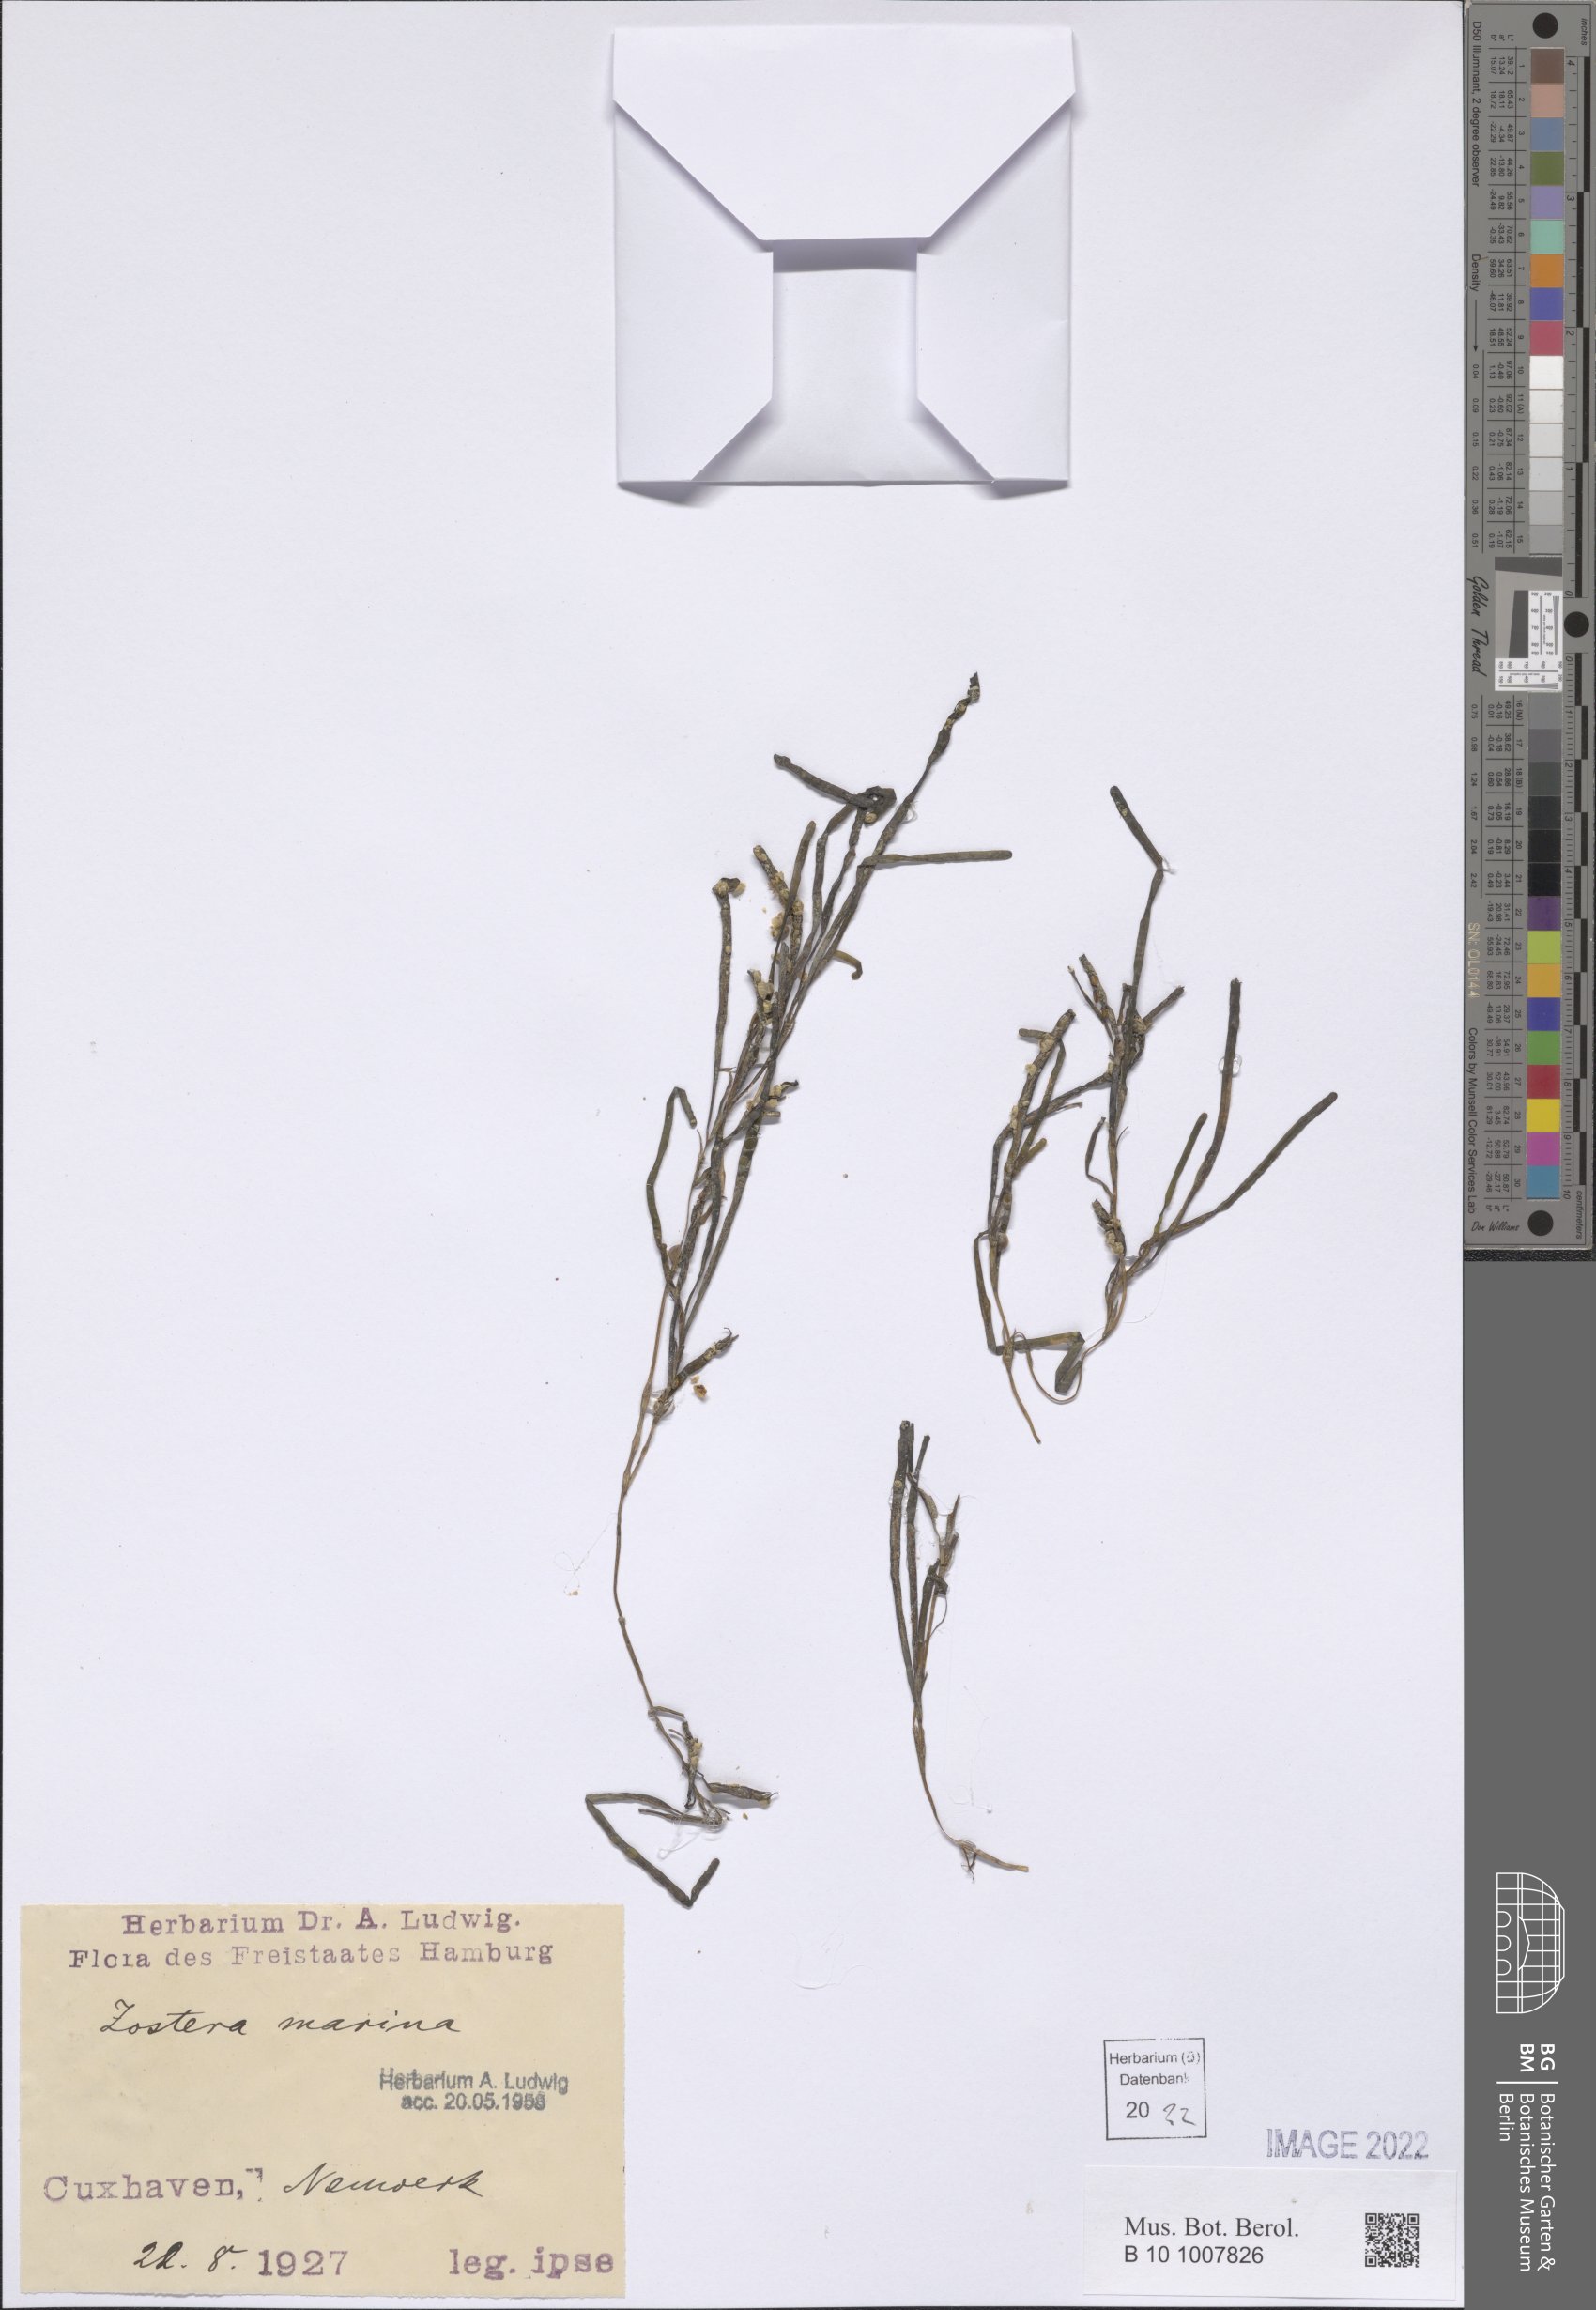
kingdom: Plantae
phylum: Tracheophyta
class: Liliopsida
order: Alismatales
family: Zosteraceae
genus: Zostera
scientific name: Zostera marina
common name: Eelgrass
